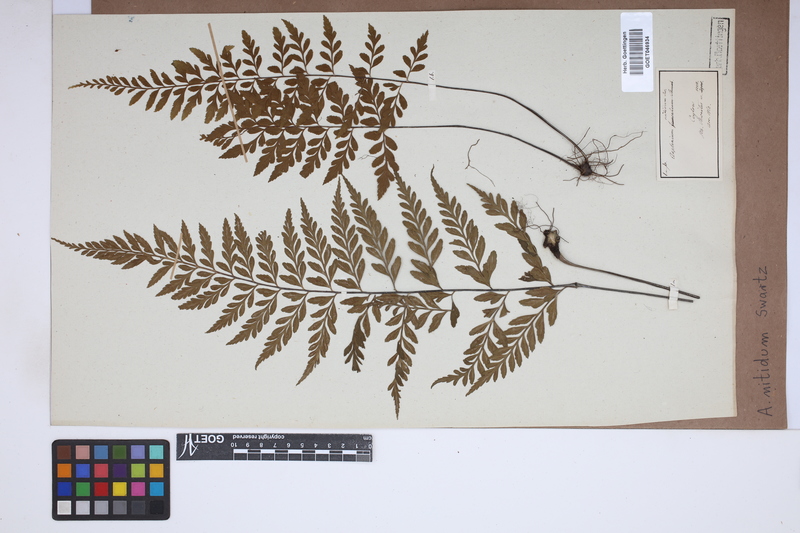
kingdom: Plantae
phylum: Tracheophyta
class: Polypodiopsida
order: Polypodiales
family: Aspleniaceae
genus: Asplenium
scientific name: Asplenium nitidum
